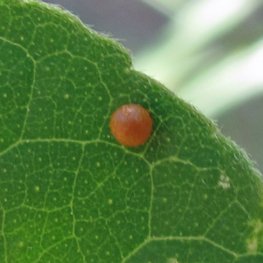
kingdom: Animalia
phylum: Arthropoda
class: Insecta
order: Lepidoptera
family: Papilionidae
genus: Papilio
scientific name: Papilio cresphontes
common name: Eastern Giant Swallowtail
